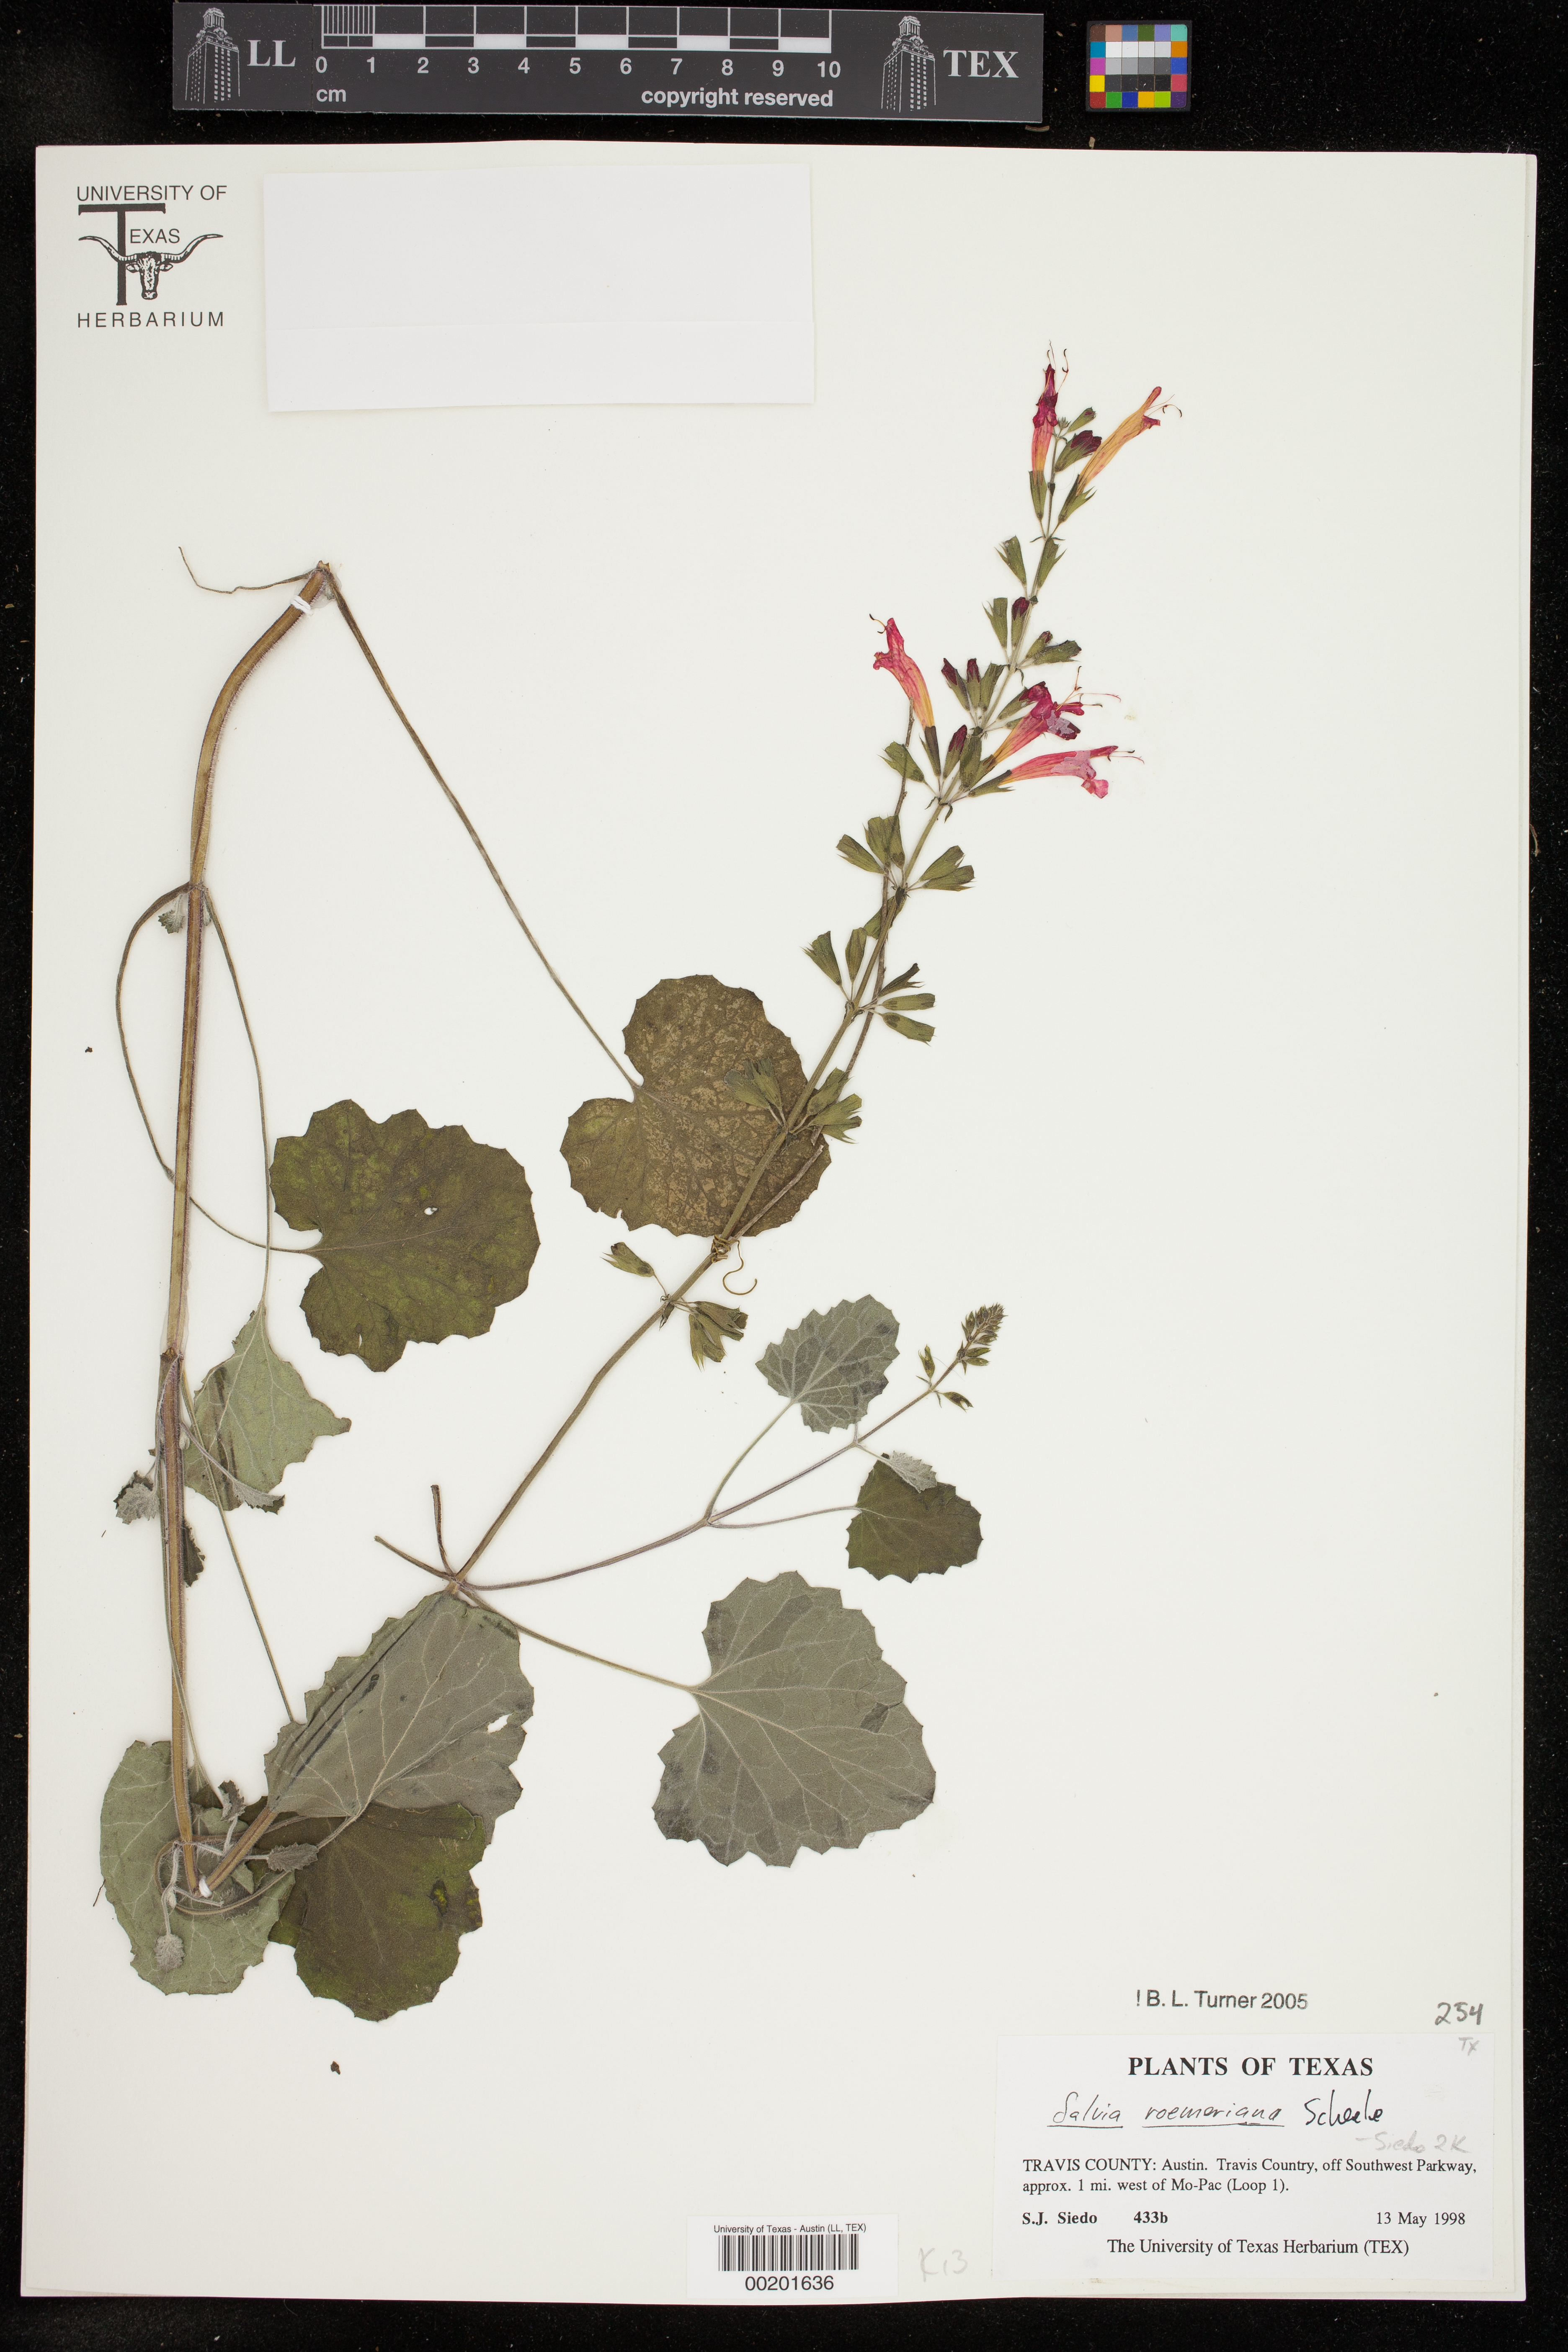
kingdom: Plantae
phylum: Tracheophyta
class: Magnoliopsida
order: Lamiales
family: Lamiaceae
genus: Salvia
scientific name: Salvia roemeriana
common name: Cedar sage
